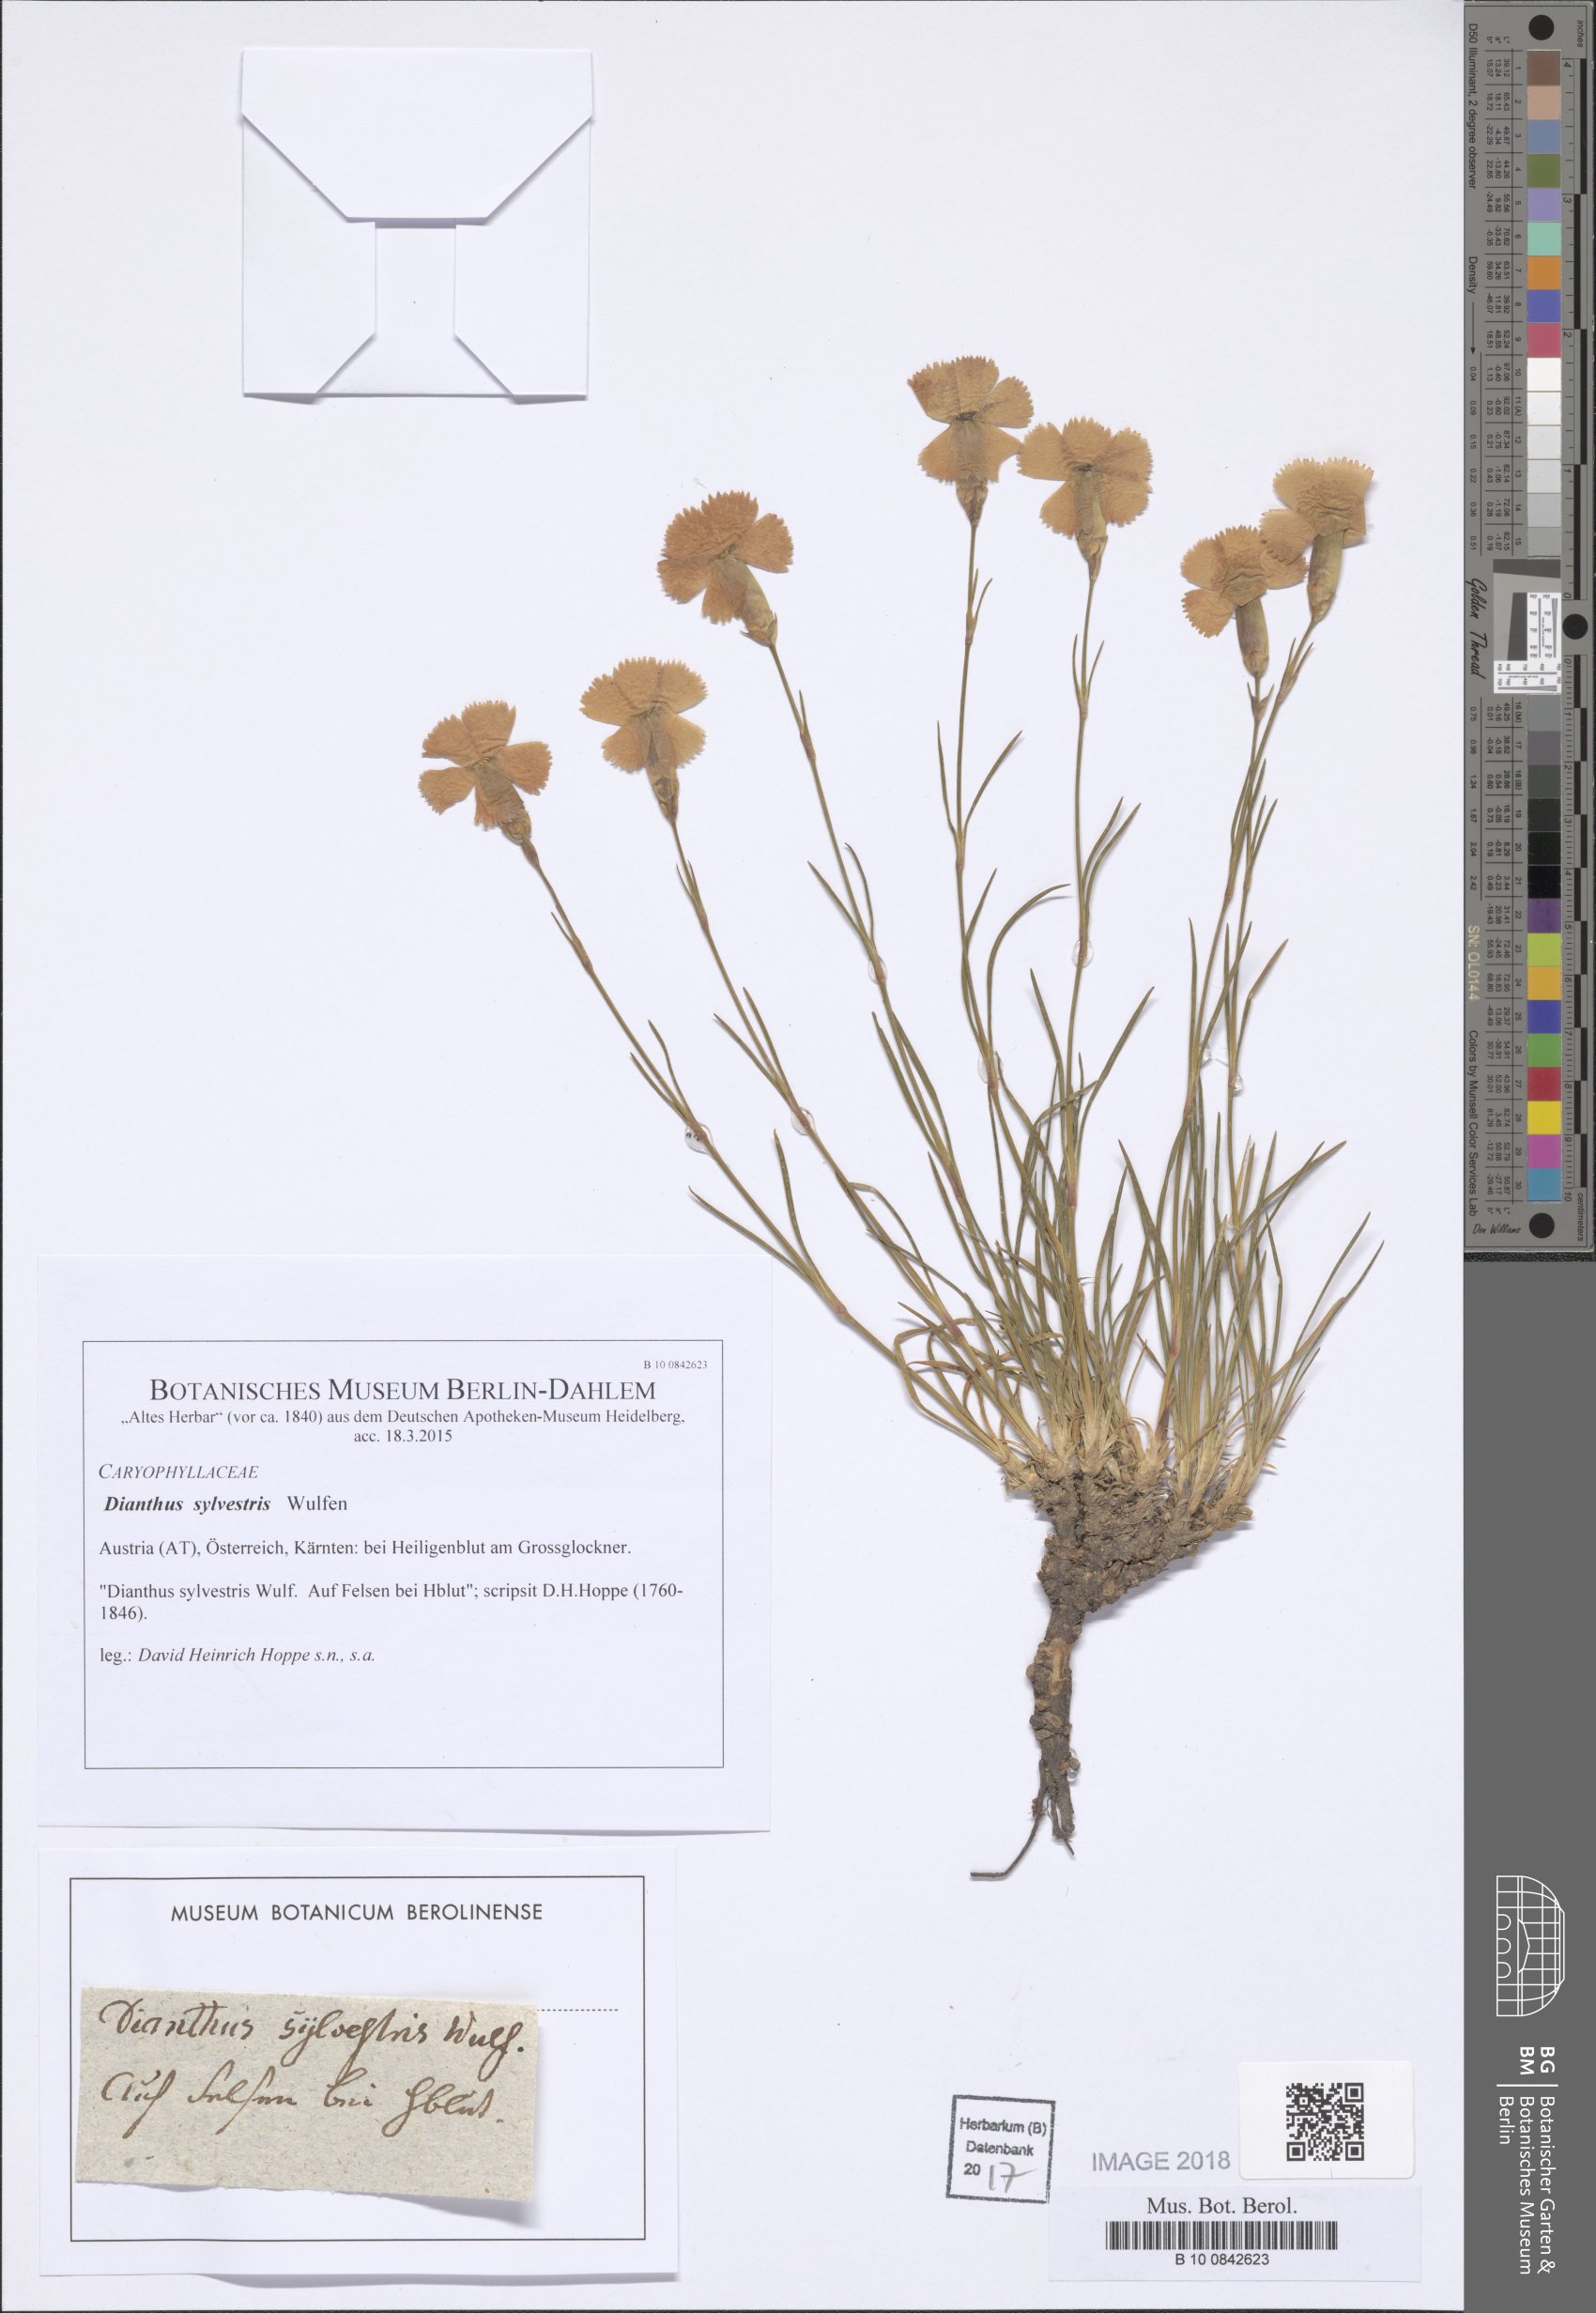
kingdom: Plantae
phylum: Tracheophyta
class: Magnoliopsida
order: Caryophyllales
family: Caryophyllaceae
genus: Dianthus
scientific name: Dianthus sylvestris
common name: Wood pink
